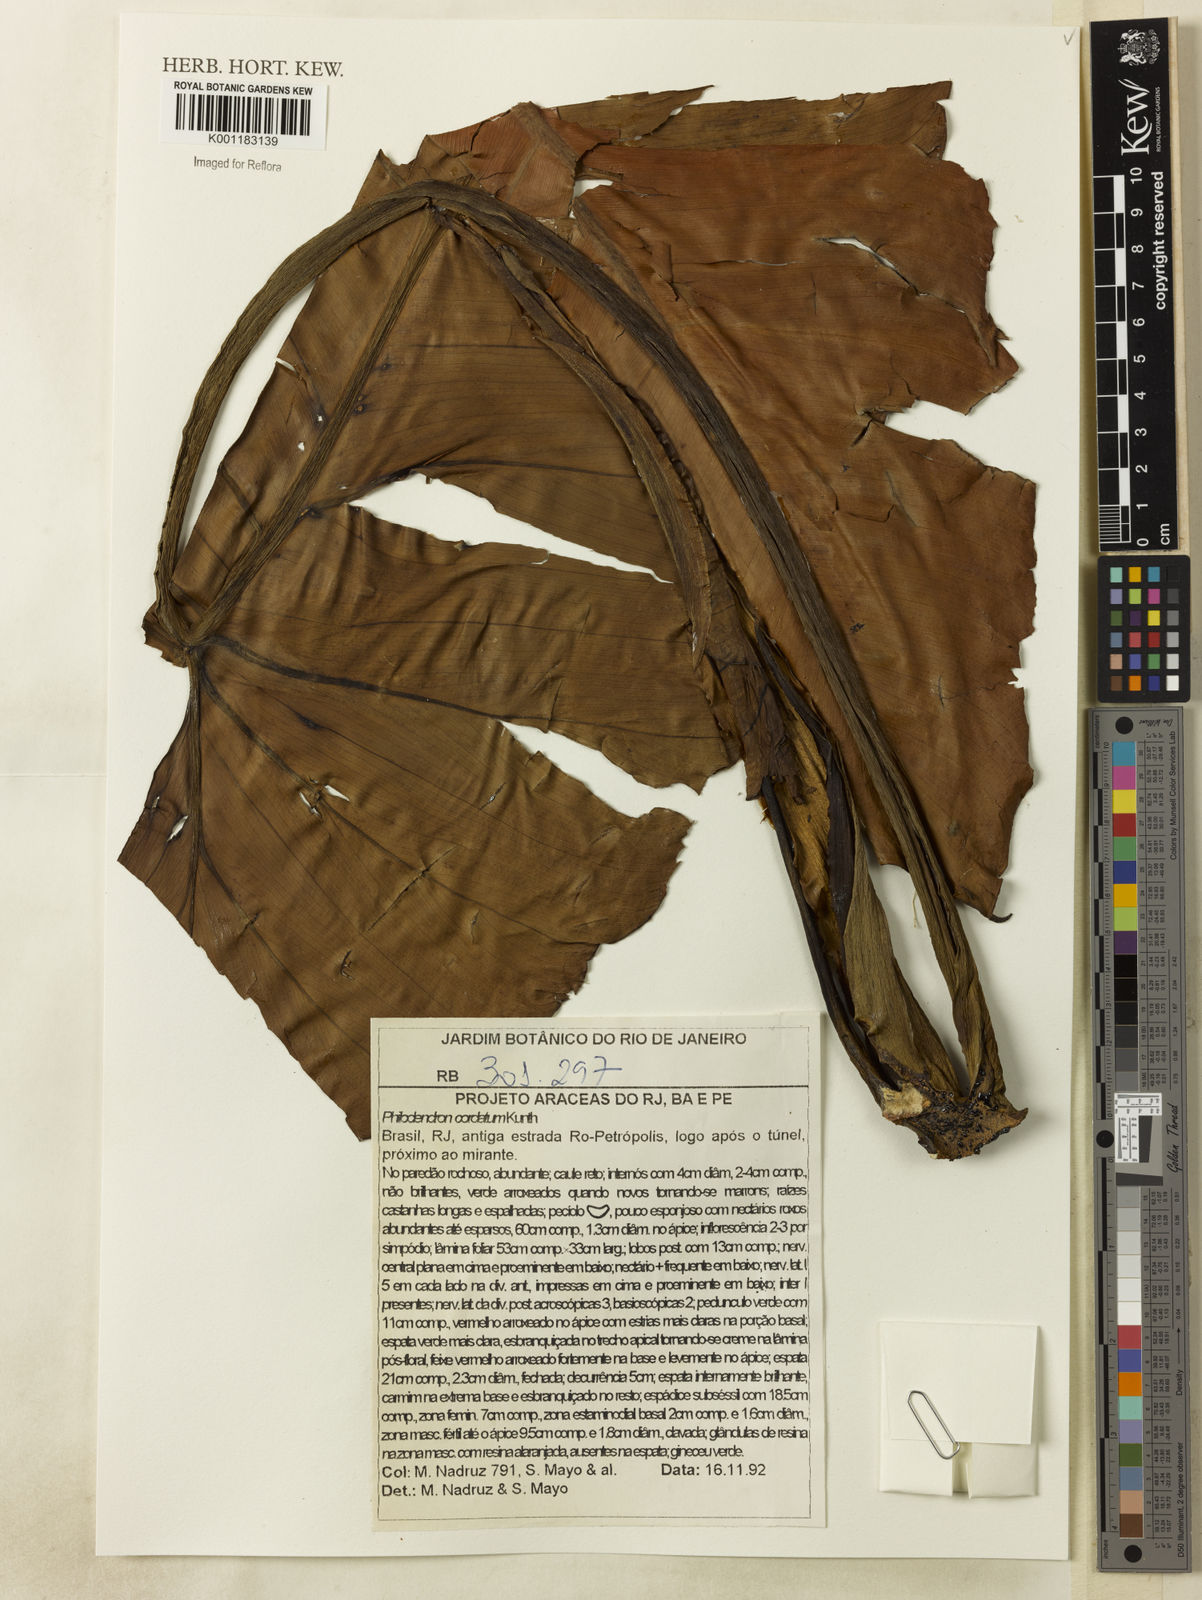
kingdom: Plantae
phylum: Tracheophyta
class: Liliopsida
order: Alismatales
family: Araceae
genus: Philodendron
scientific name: Philodendron cordatum
